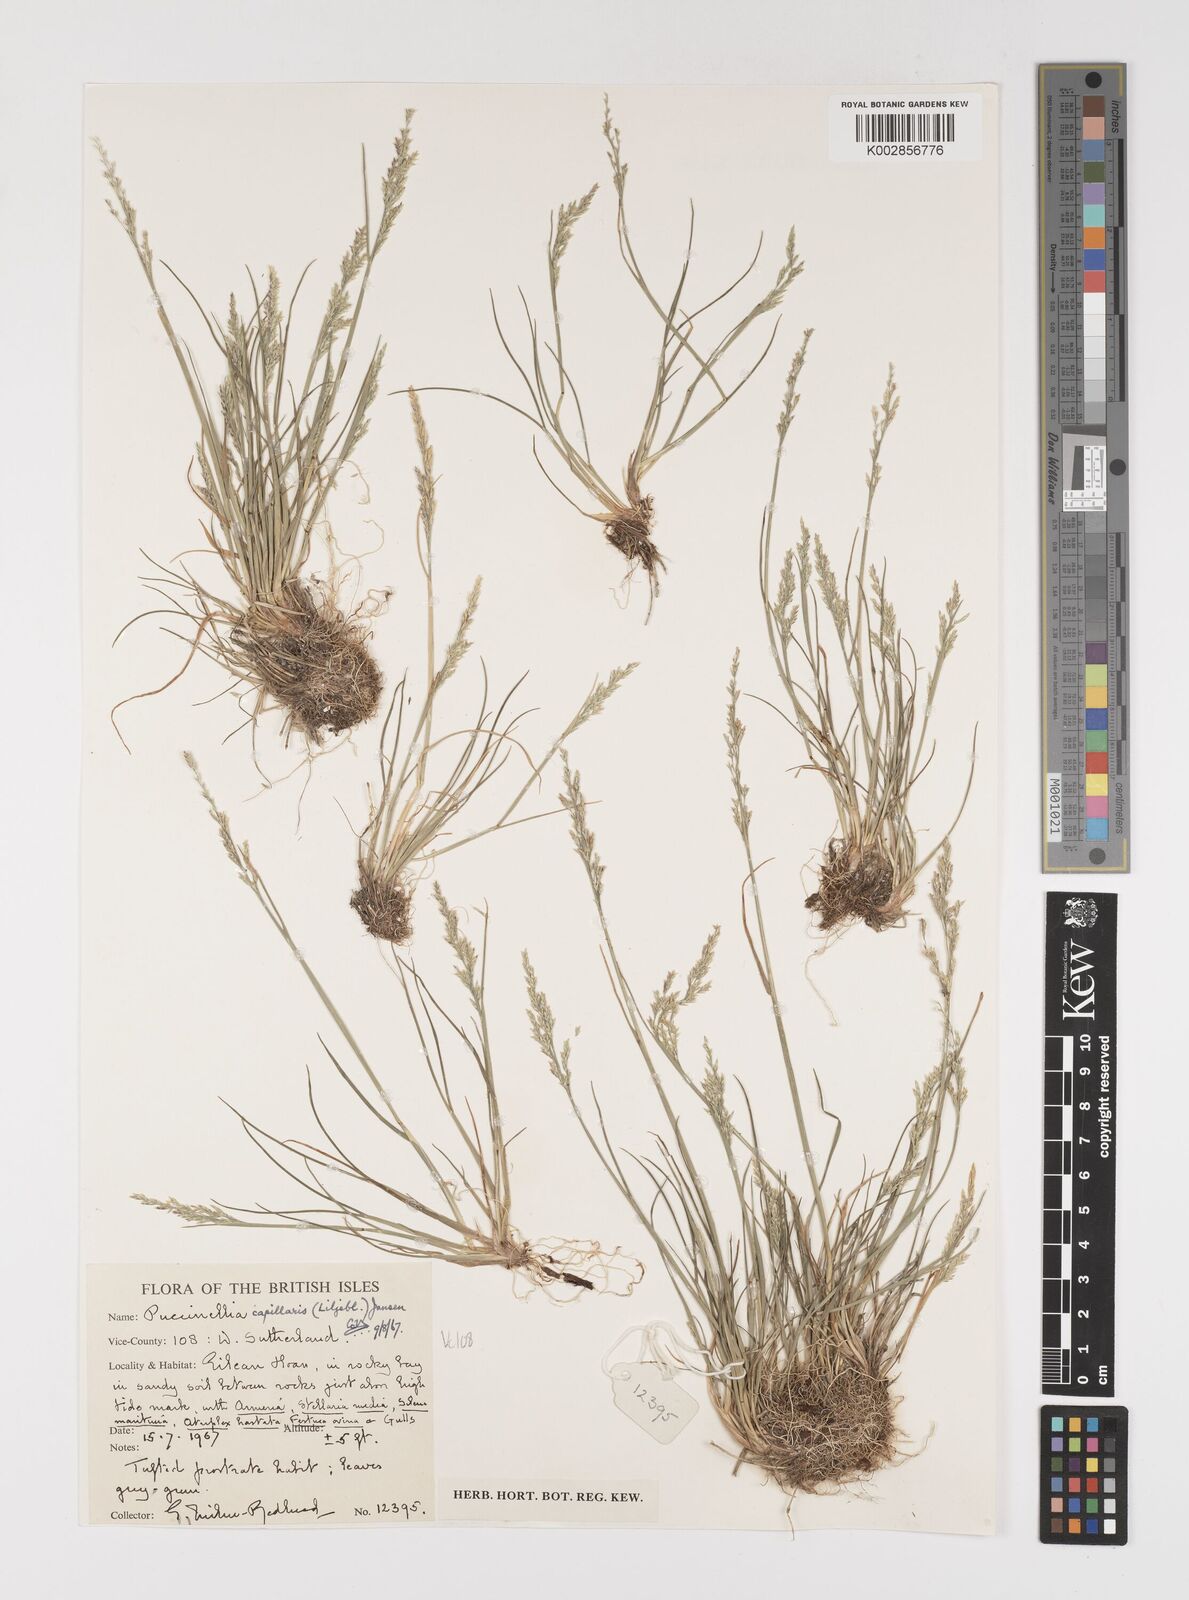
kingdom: Plantae
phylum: Tracheophyta
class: Liliopsida
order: Poales
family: Poaceae
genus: Puccinellia
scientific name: Puccinellia distans
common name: Weeping alkaligrass
